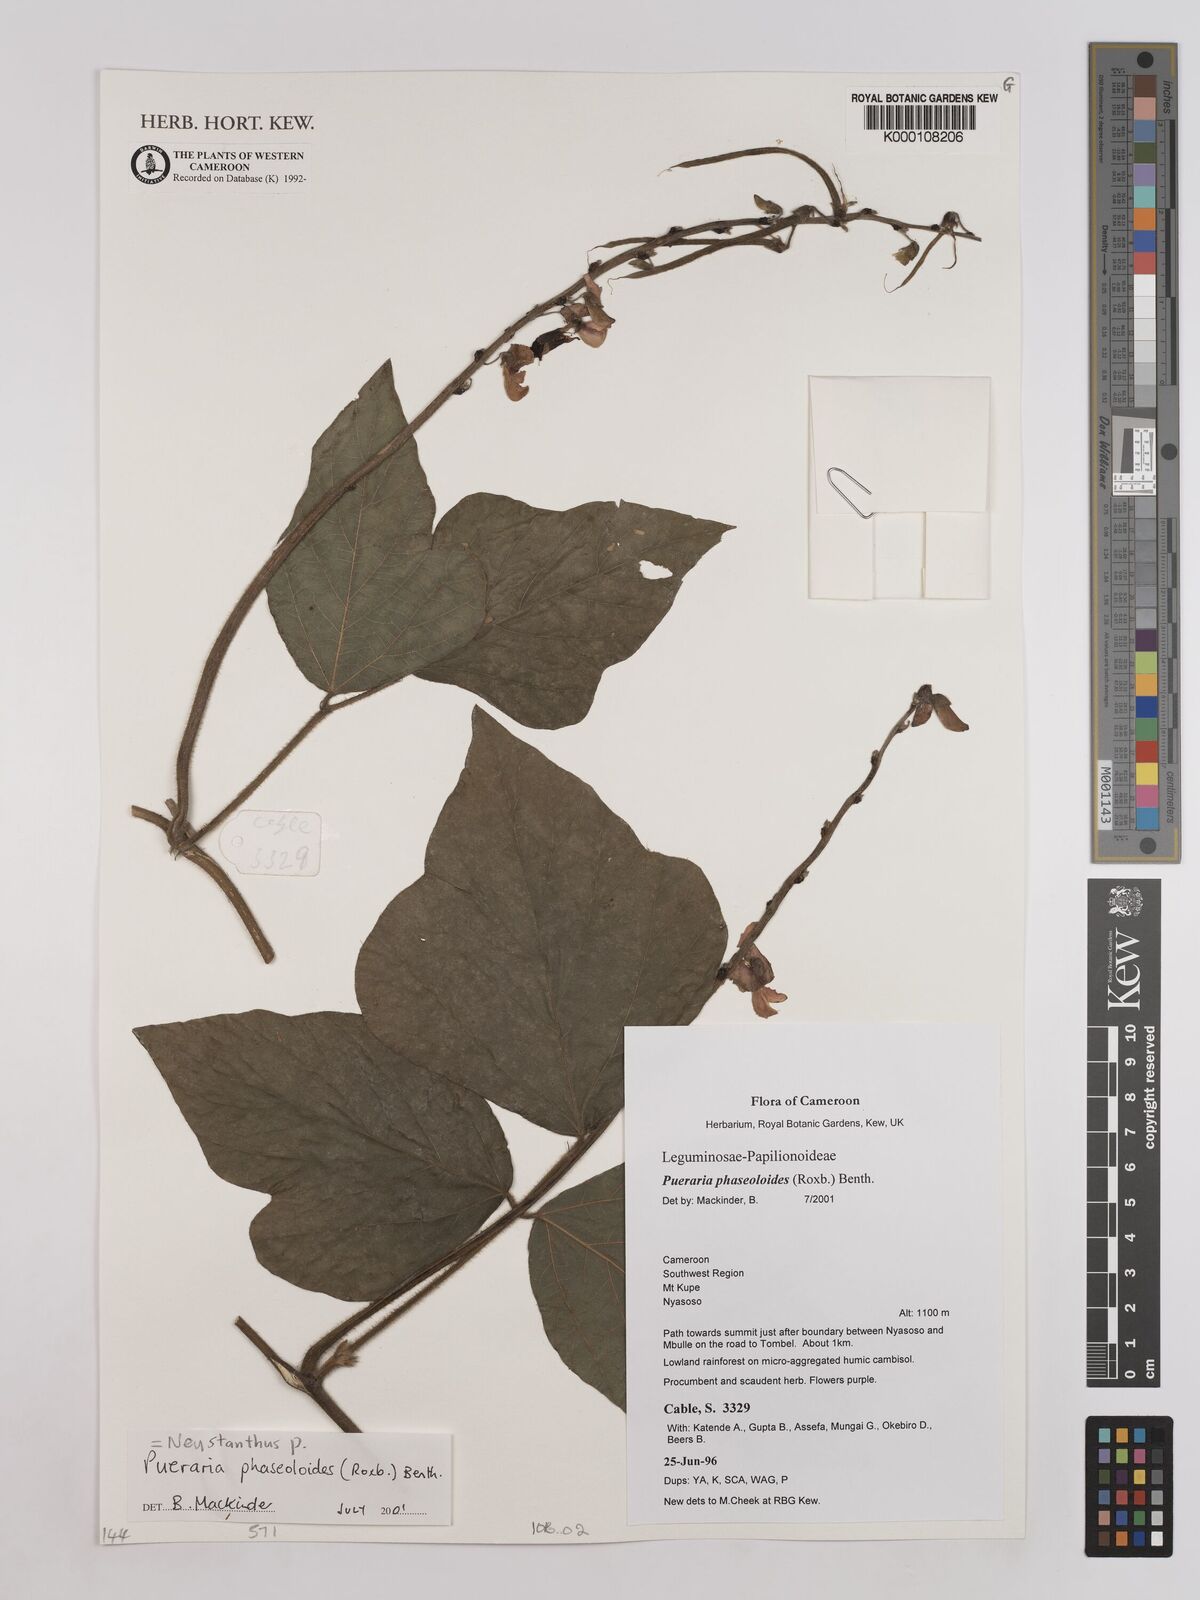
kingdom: Plantae
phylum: Tracheophyta
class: Magnoliopsida
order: Fabales
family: Fabaceae
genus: Neustanthus
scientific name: Neustanthus phaseoloides
